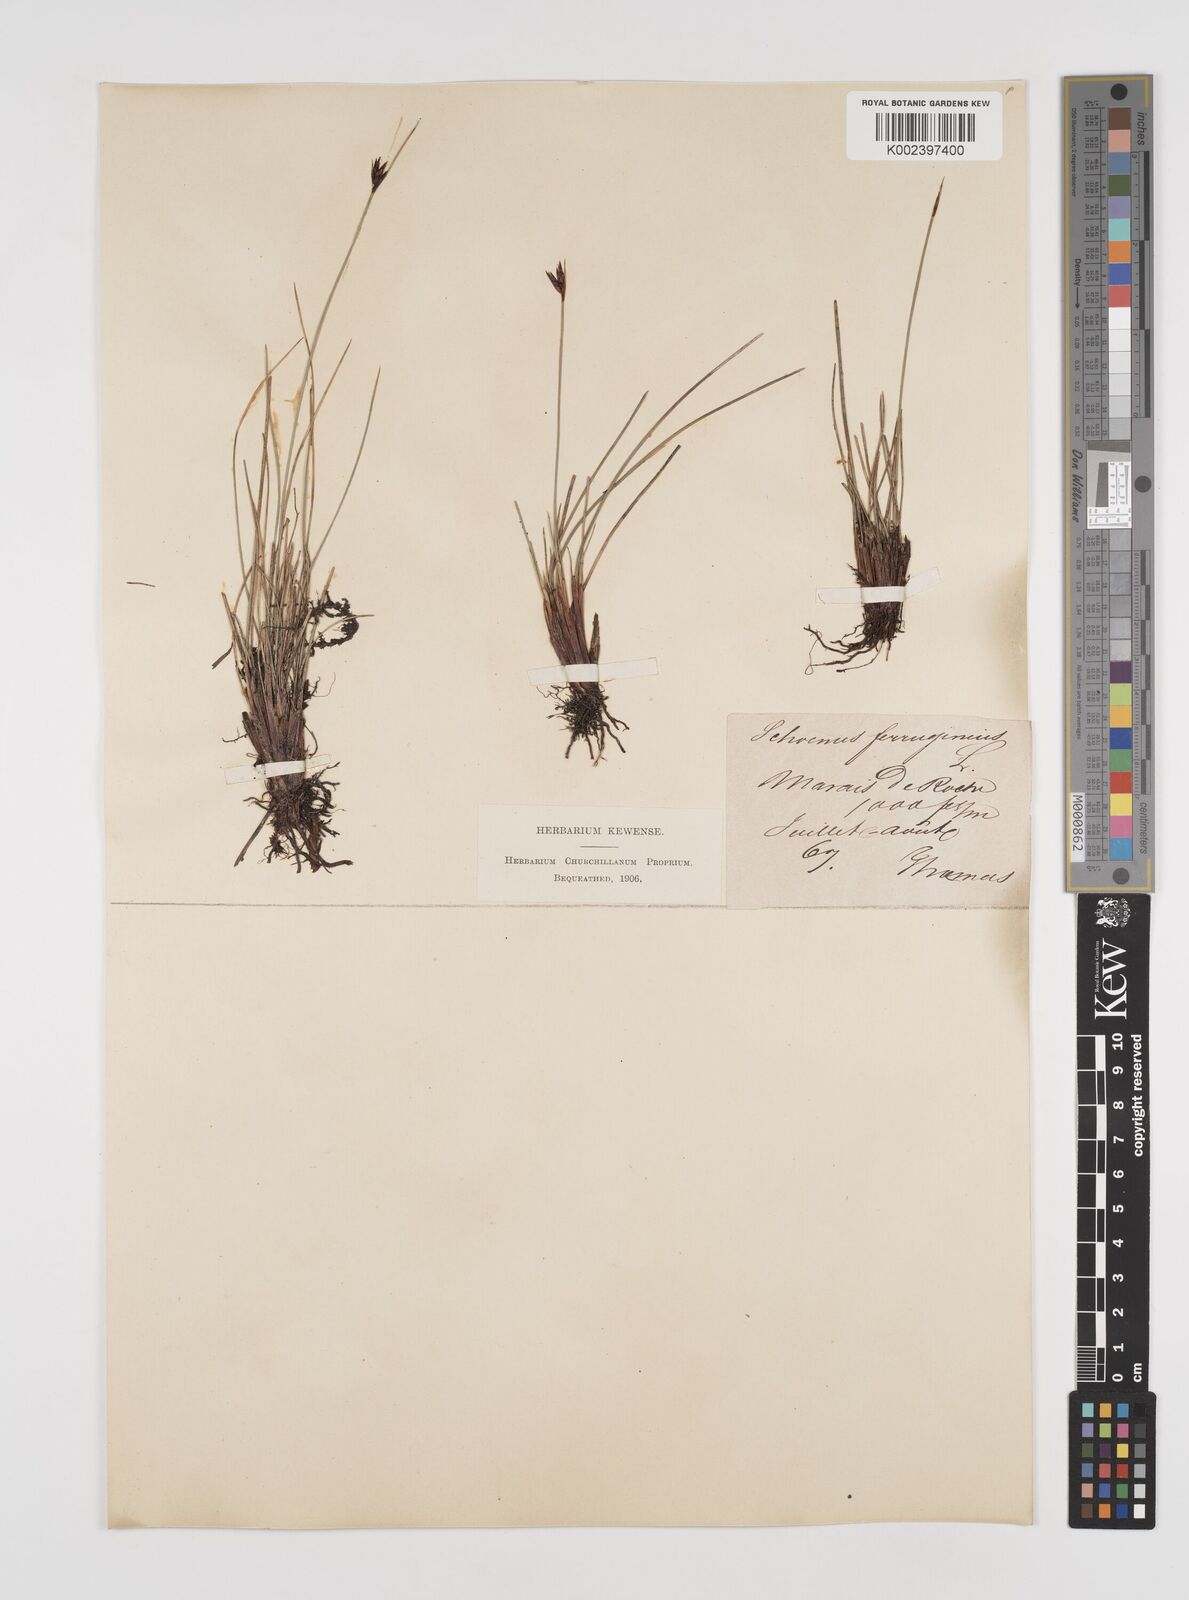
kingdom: Plantae
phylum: Tracheophyta
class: Liliopsida
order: Poales
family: Cyperaceae
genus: Schoenus
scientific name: Schoenus ferrugineus
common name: Brown bog-rush
